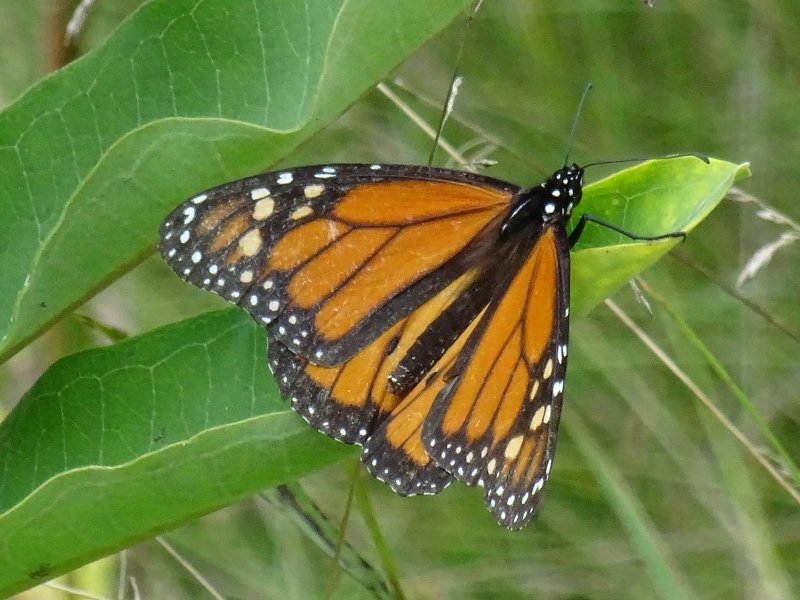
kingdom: Animalia
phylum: Arthropoda
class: Insecta
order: Lepidoptera
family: Nymphalidae
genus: Danaus
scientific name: Danaus plexippus
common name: Monarch
